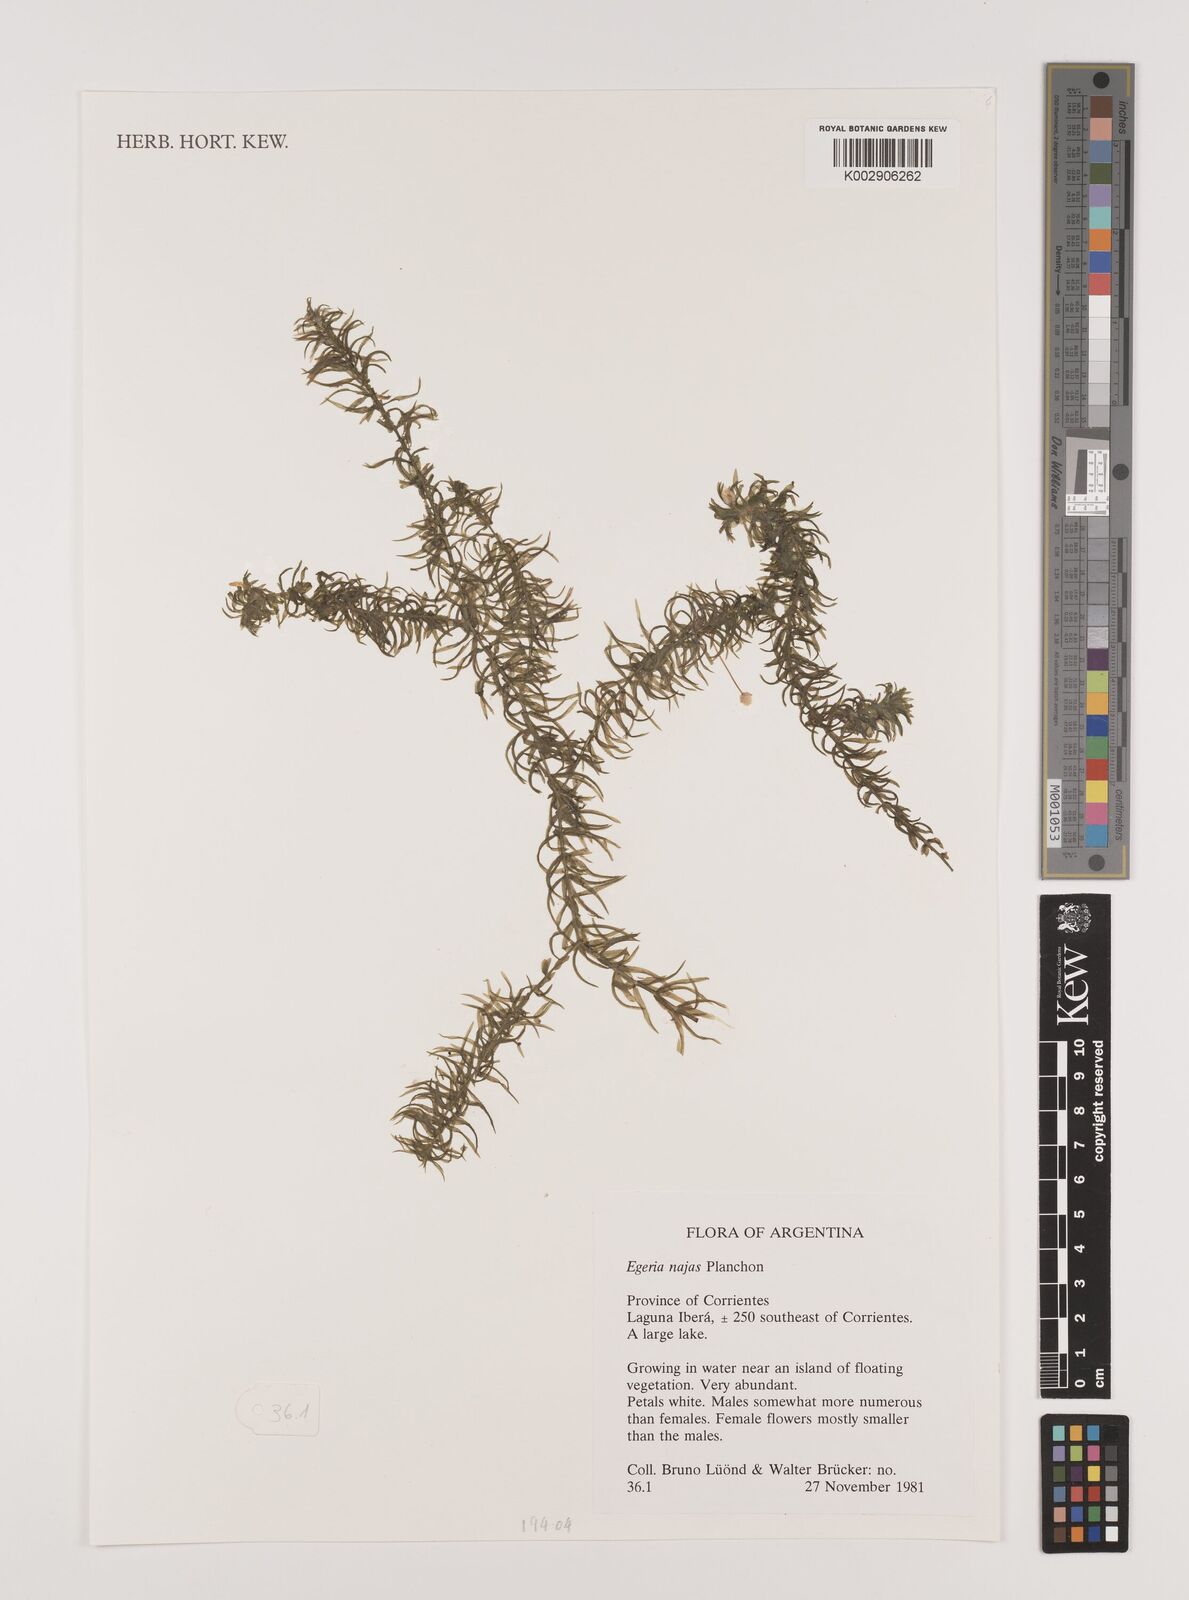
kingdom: Plantae
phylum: Tracheophyta
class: Liliopsida
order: Alismatales
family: Hydrocharitaceae
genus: Elodea
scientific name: Elodea najas
